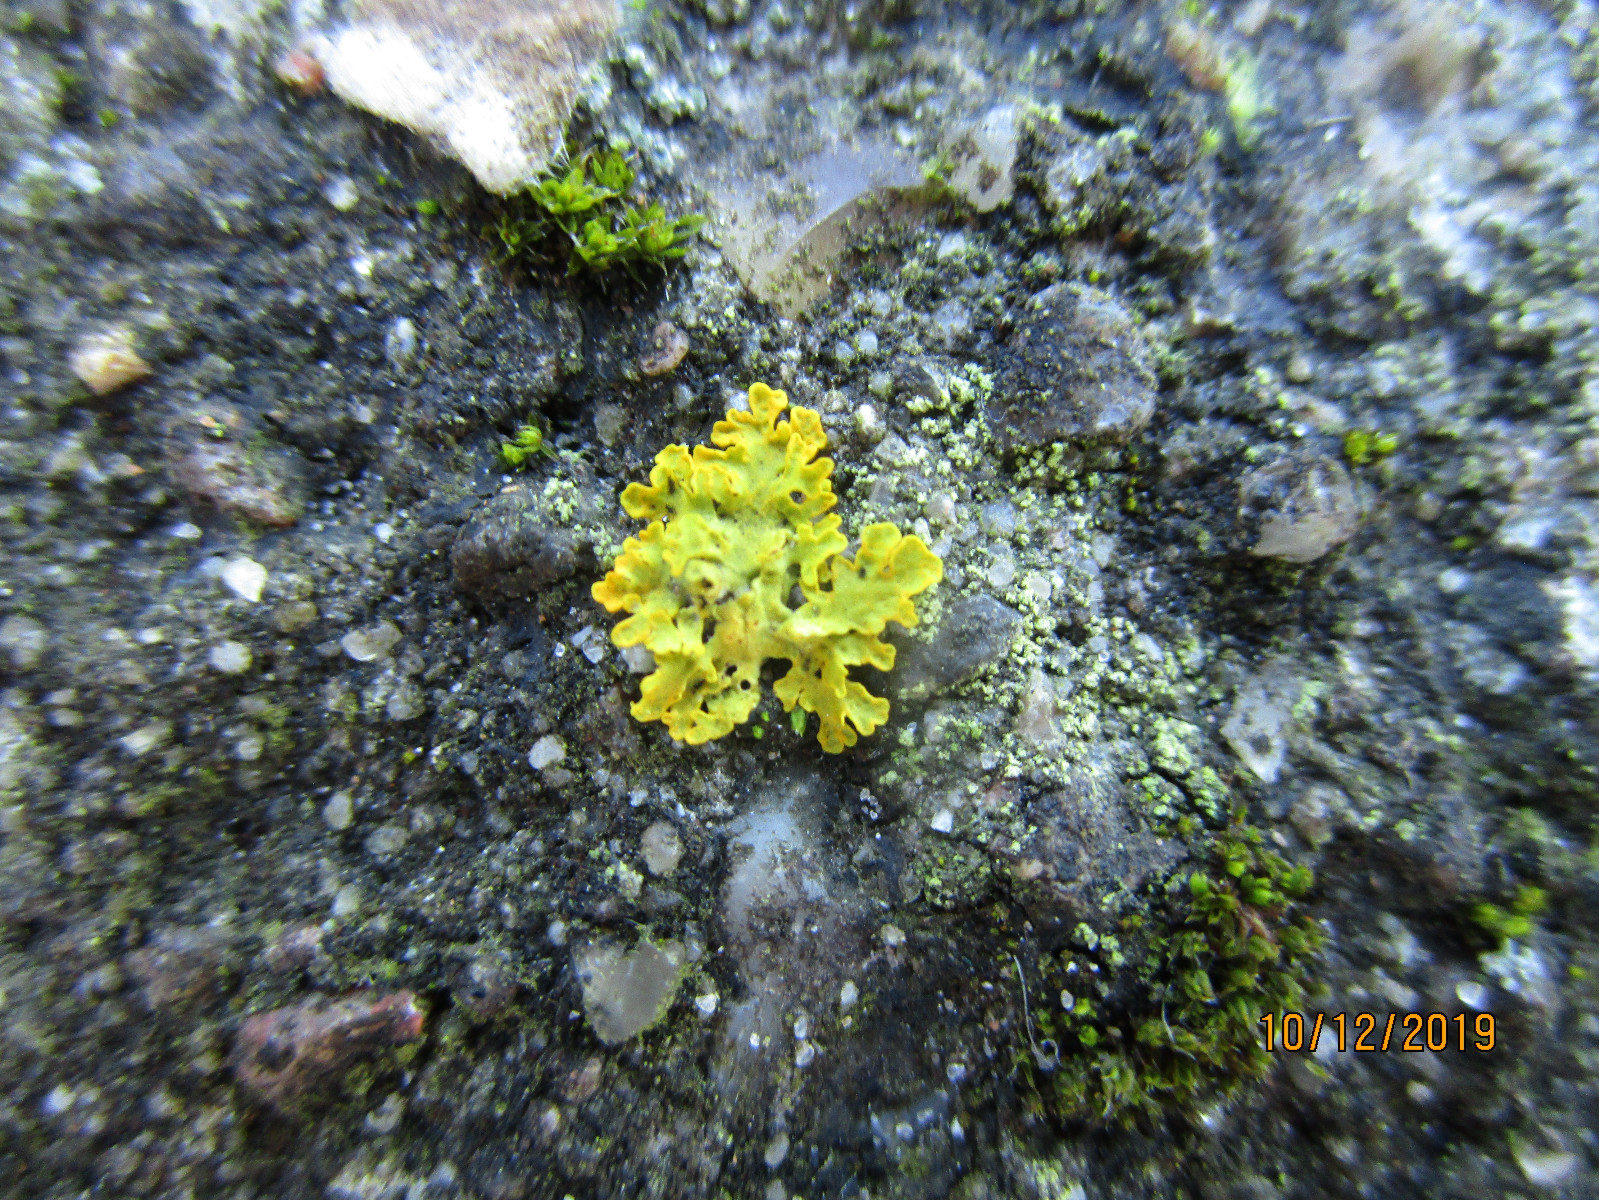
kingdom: Fungi
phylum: Ascomycota
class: Lecanoromycetes
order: Teloschistales
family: Teloschistaceae
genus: Xanthoria
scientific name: Xanthoria parietina
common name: almindelig væggelav
